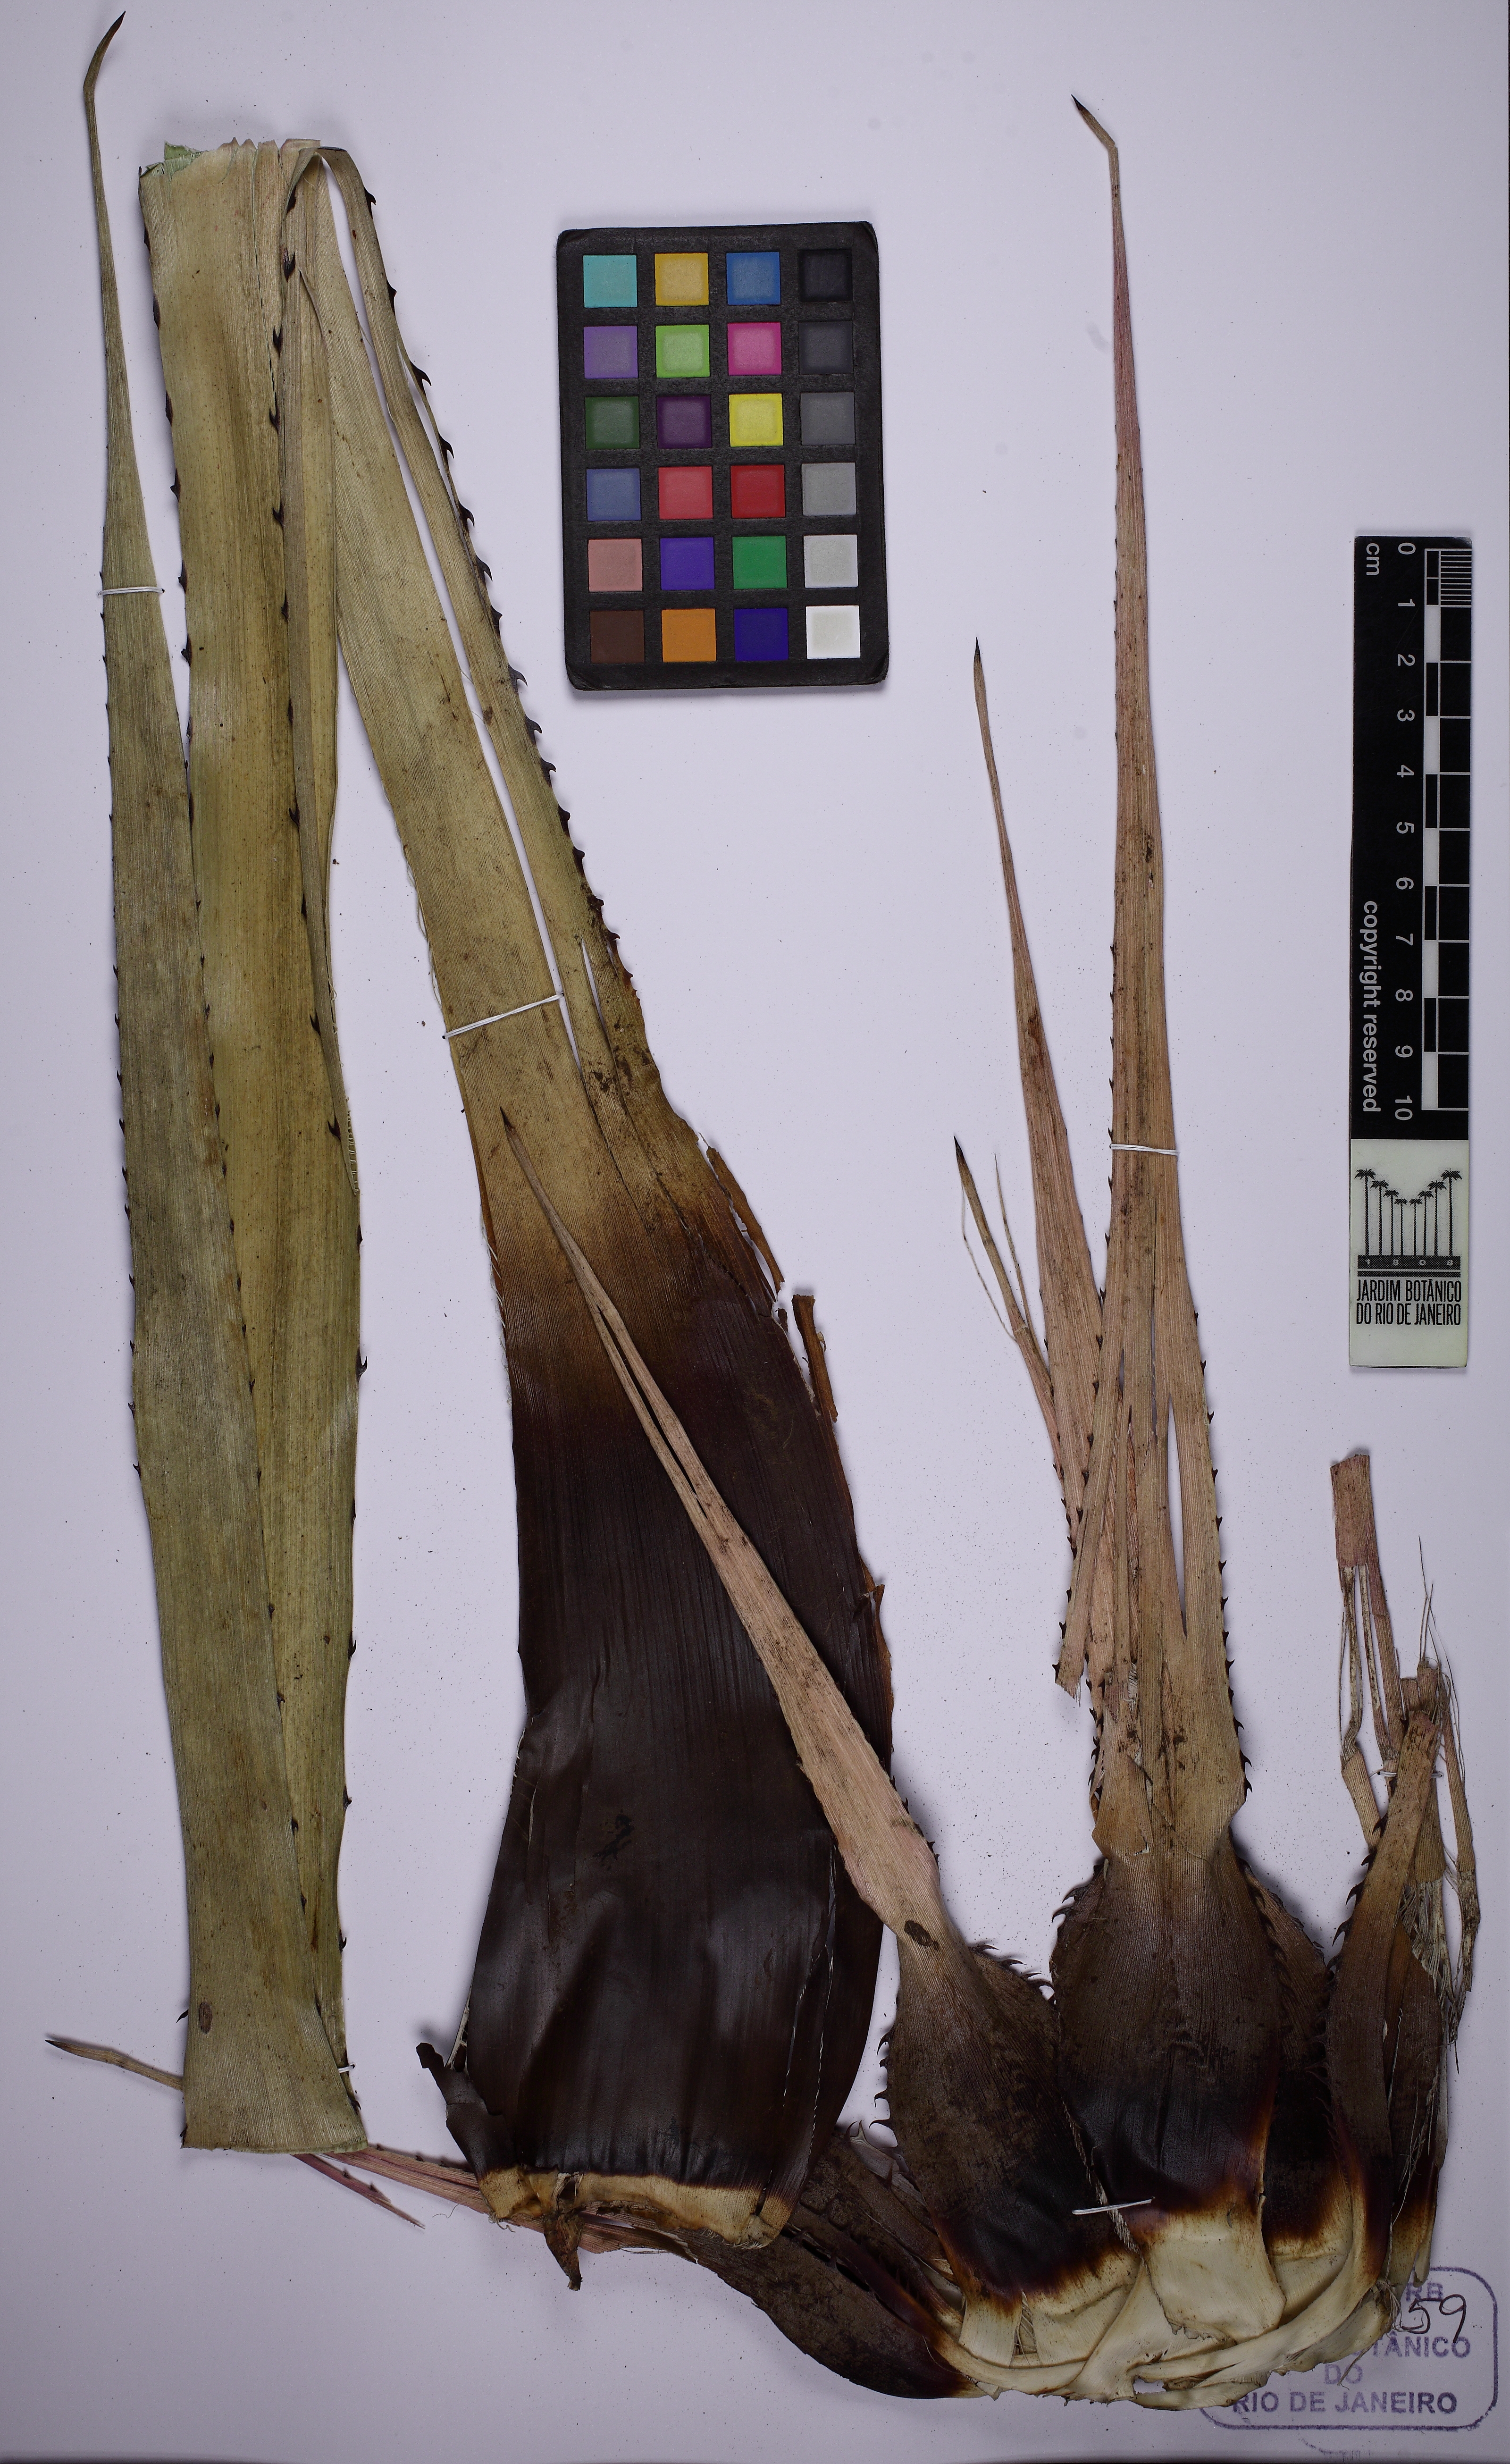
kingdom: Plantae
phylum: Tracheophyta
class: Liliopsida
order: Poales
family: Bromeliaceae
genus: Karawata
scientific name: Karawata gustavoi
